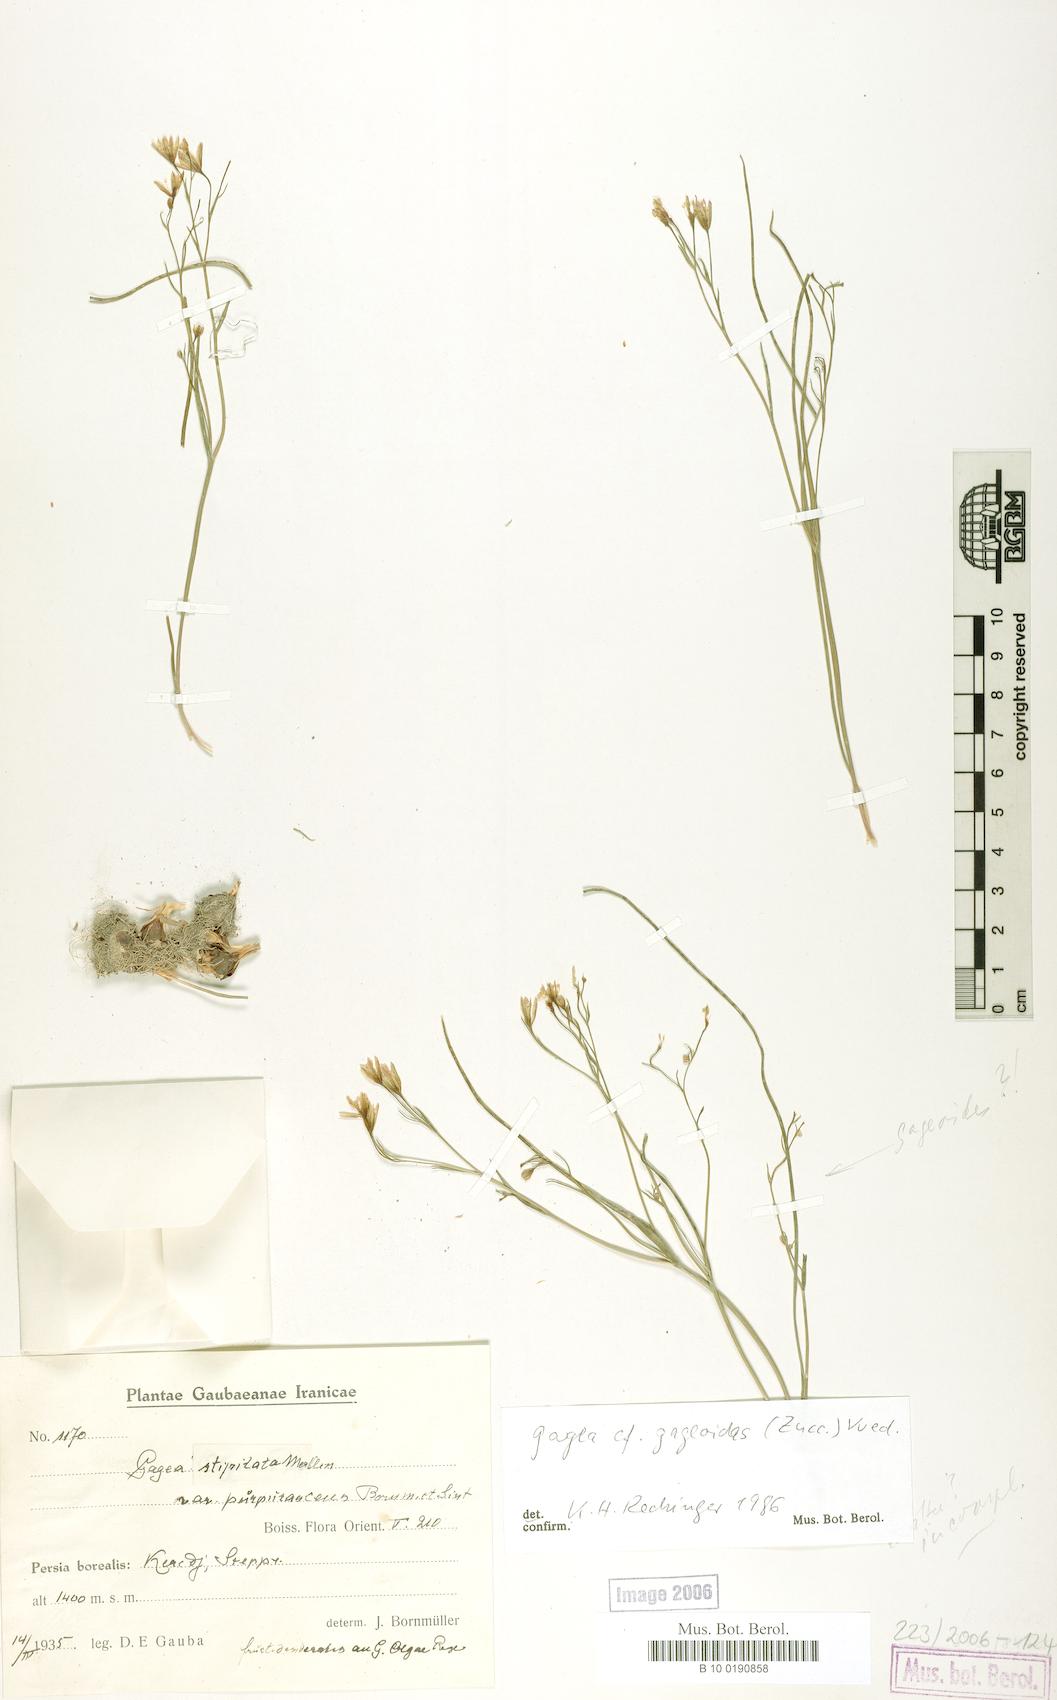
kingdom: Plantae
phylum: Tracheophyta
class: Liliopsida
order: Liliales
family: Liliaceae
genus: Gagea
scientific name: Gagea gageoides
